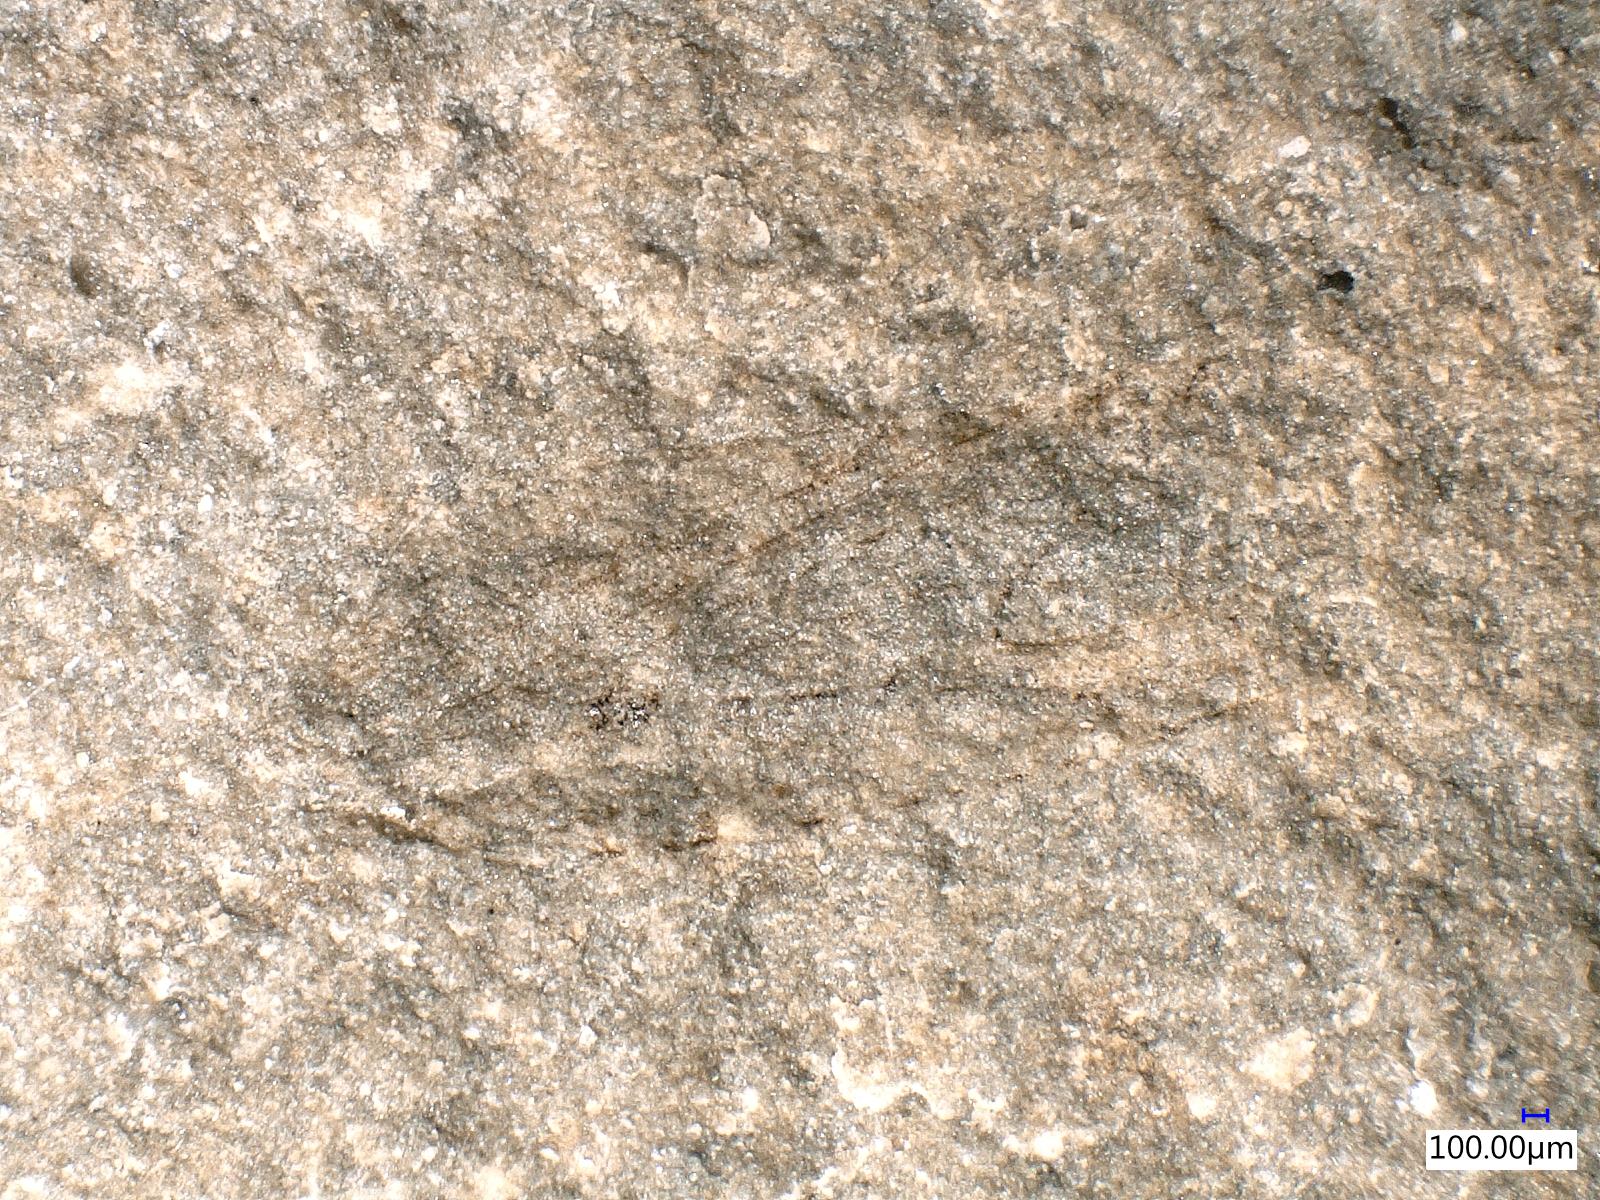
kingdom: Animalia
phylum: Arthropoda
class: Insecta
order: Hemiptera
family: Archijassidae
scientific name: Archijassidae
